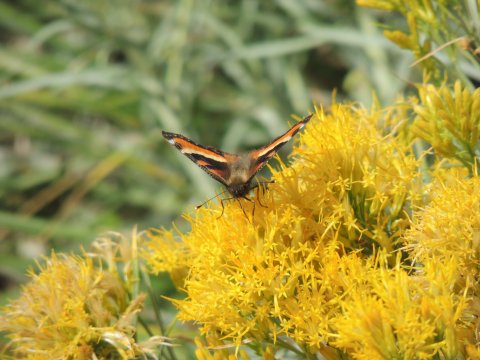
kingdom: Animalia
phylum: Arthropoda
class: Insecta
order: Lepidoptera
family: Nymphalidae
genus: Aglais
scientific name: Aglais milberti
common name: Milbert's Tortoiseshell
